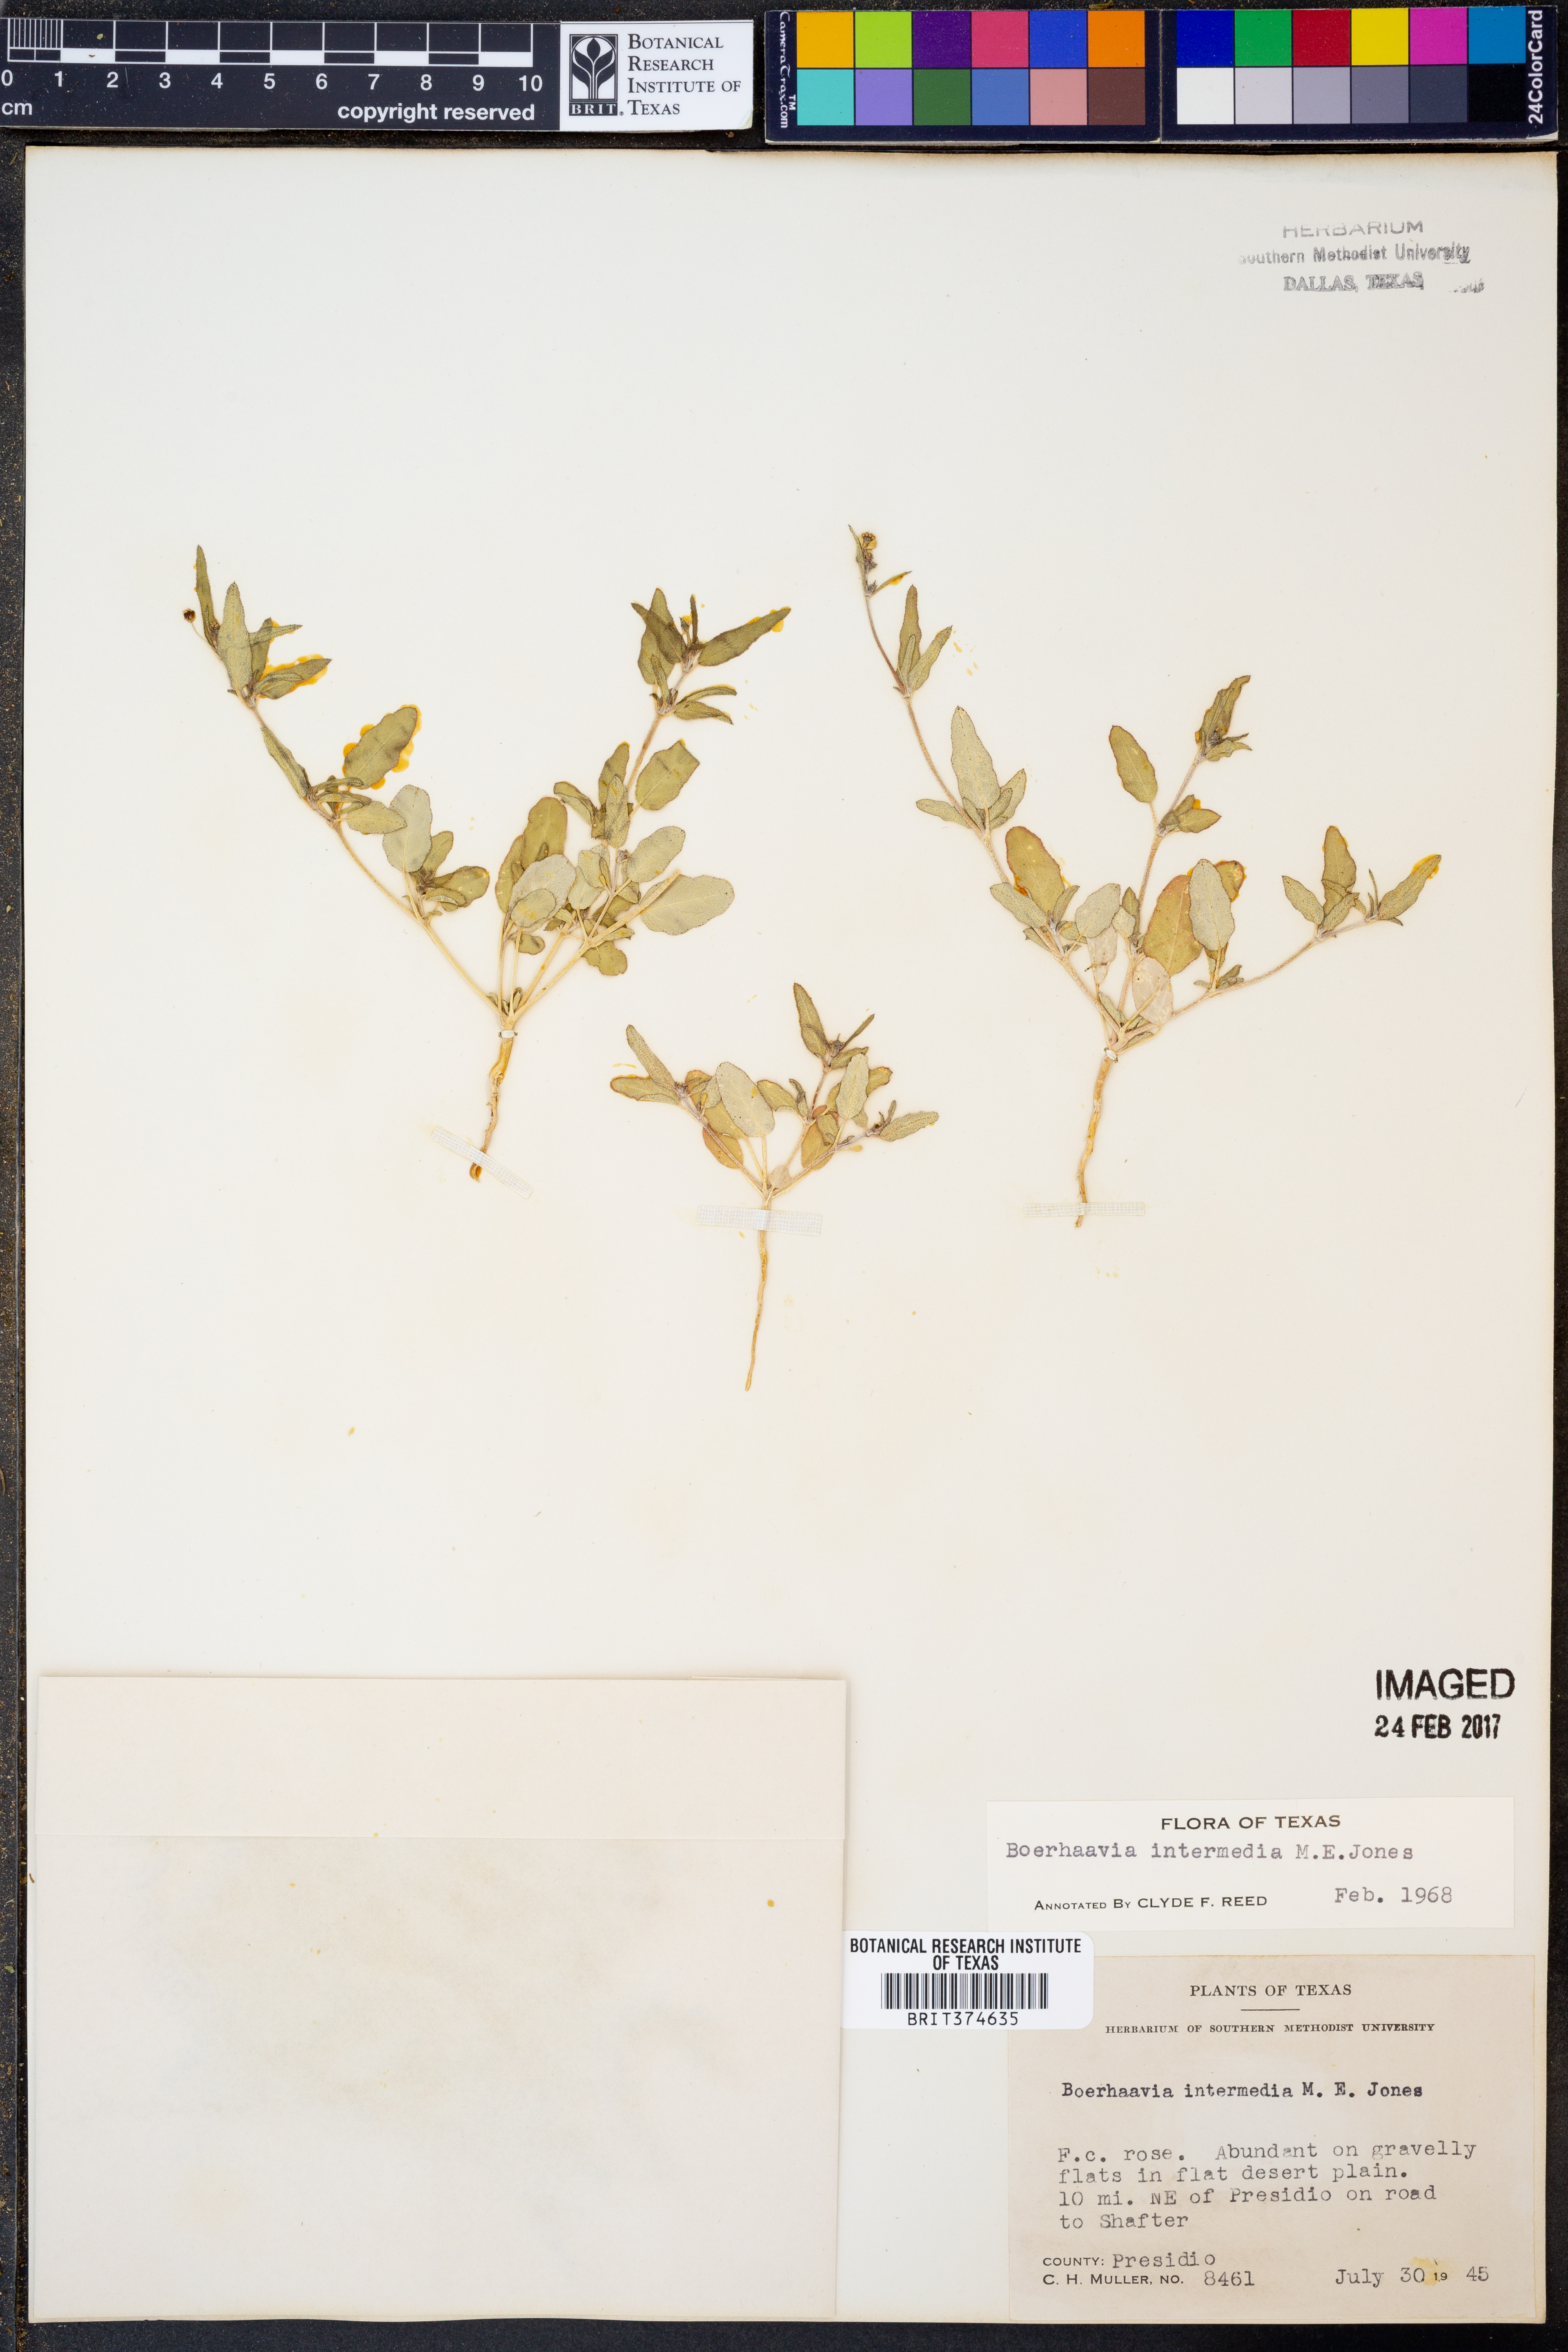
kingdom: Plantae
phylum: Tracheophyta
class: Magnoliopsida
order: Caryophyllales
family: Nyctaginaceae
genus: Boerhavia
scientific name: Boerhavia triquetra
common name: Creeping sticky-stem
